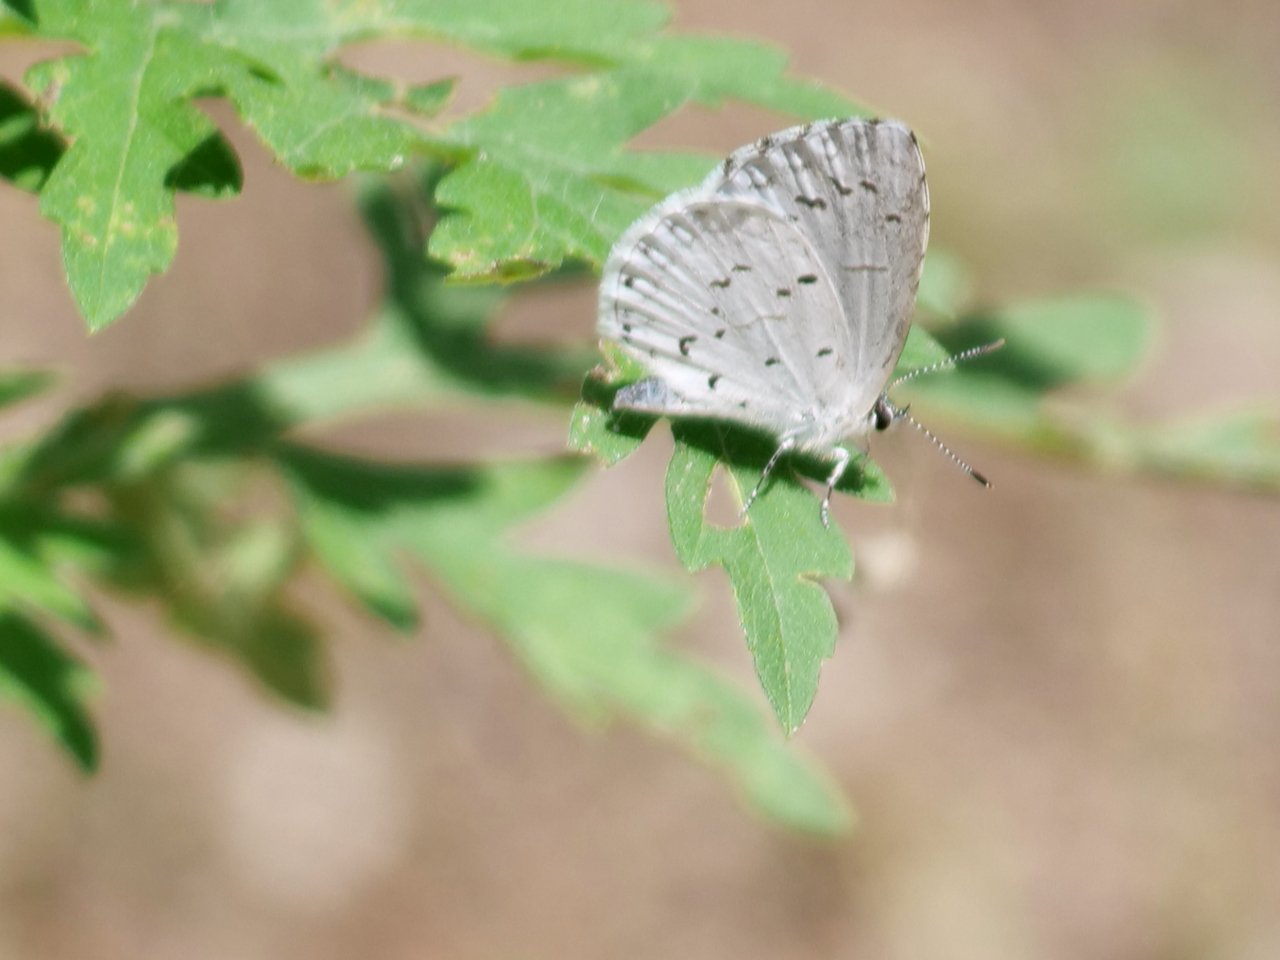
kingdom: Animalia
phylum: Arthropoda
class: Insecta
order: Lepidoptera
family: Lycaenidae
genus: Cyaniris
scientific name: Cyaniris neglecta
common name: Summer Azure
